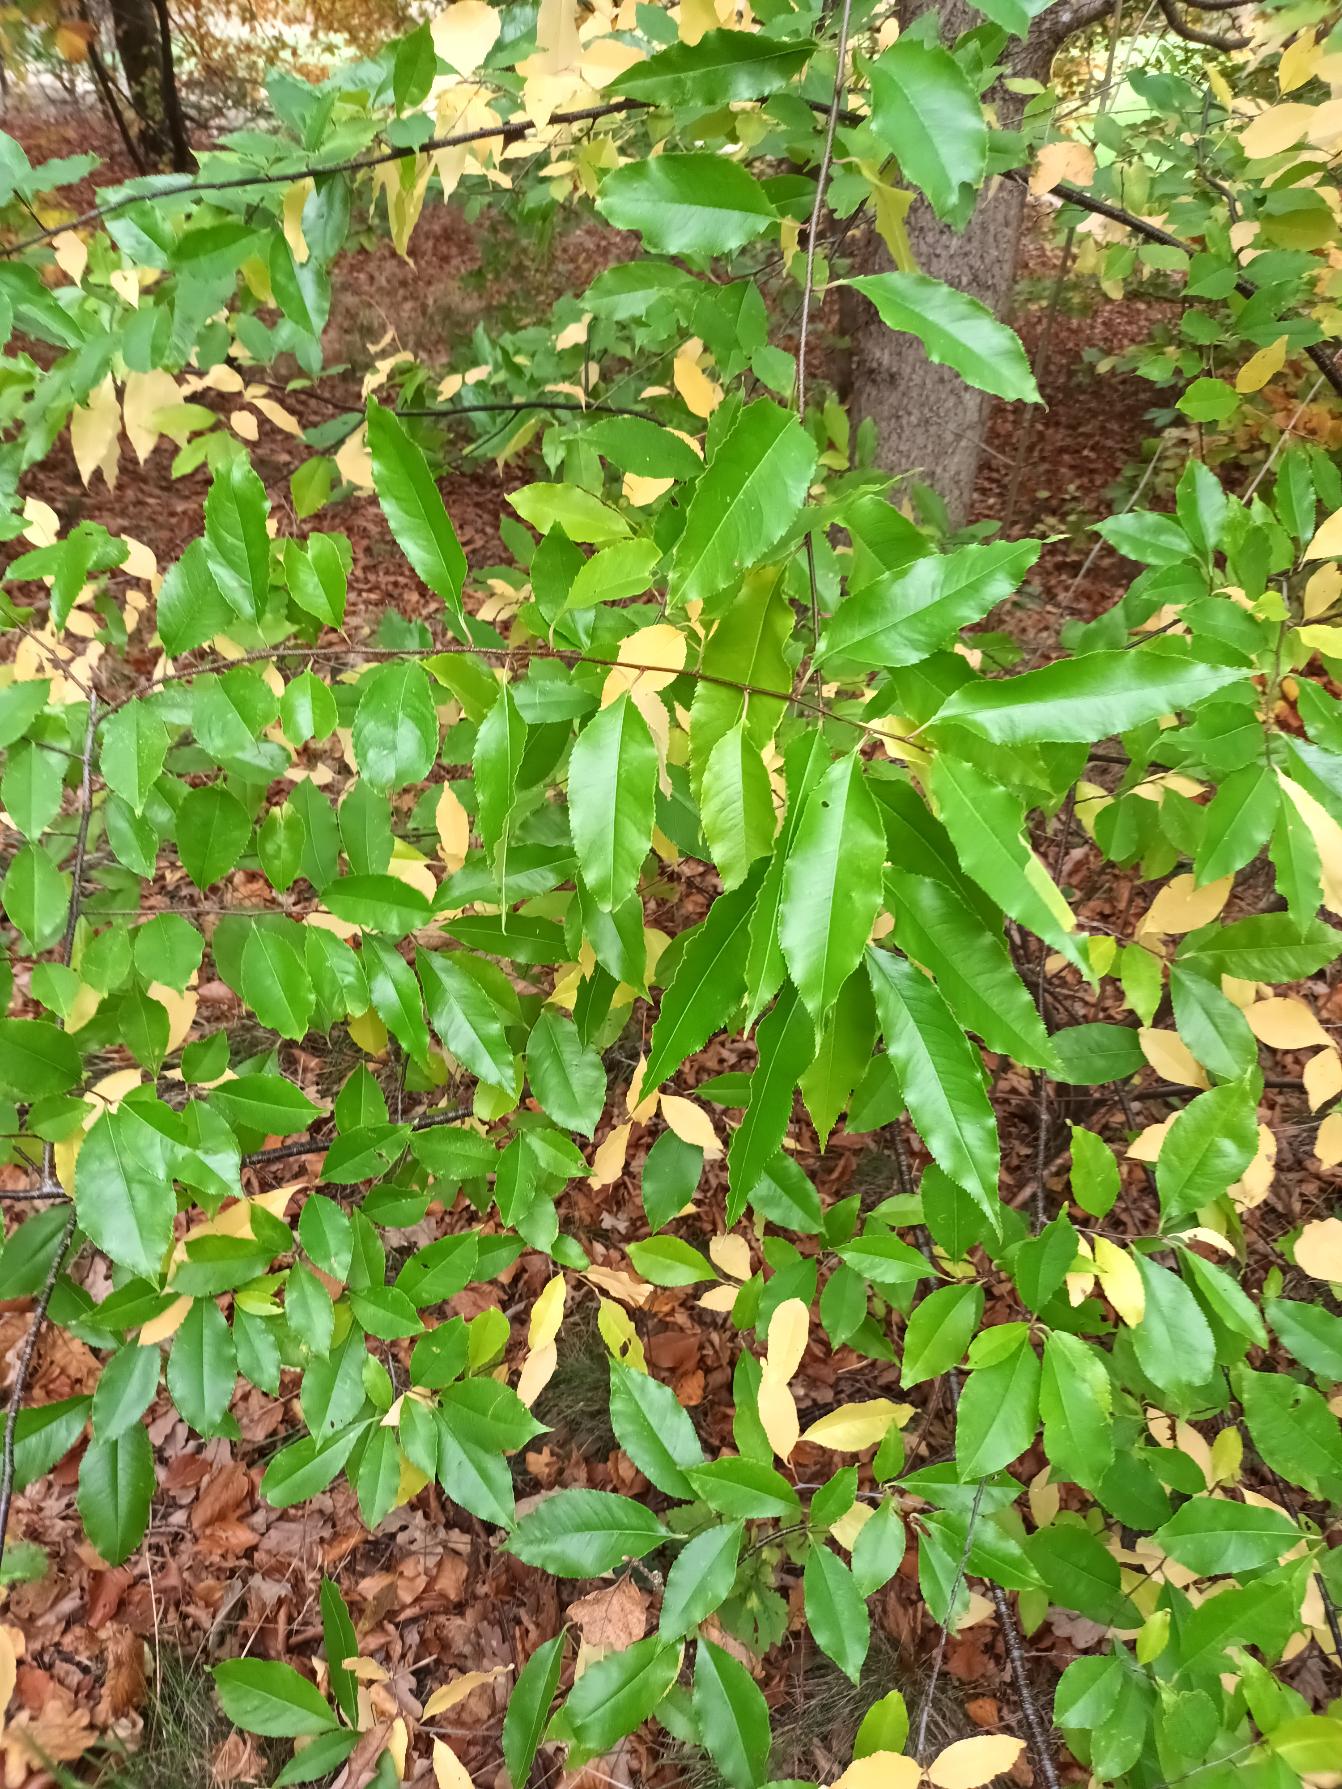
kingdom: Plantae
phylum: Tracheophyta
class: Magnoliopsida
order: Rosales
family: Rosaceae
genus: Prunus
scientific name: Prunus serotina
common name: Glansbladet hæg
